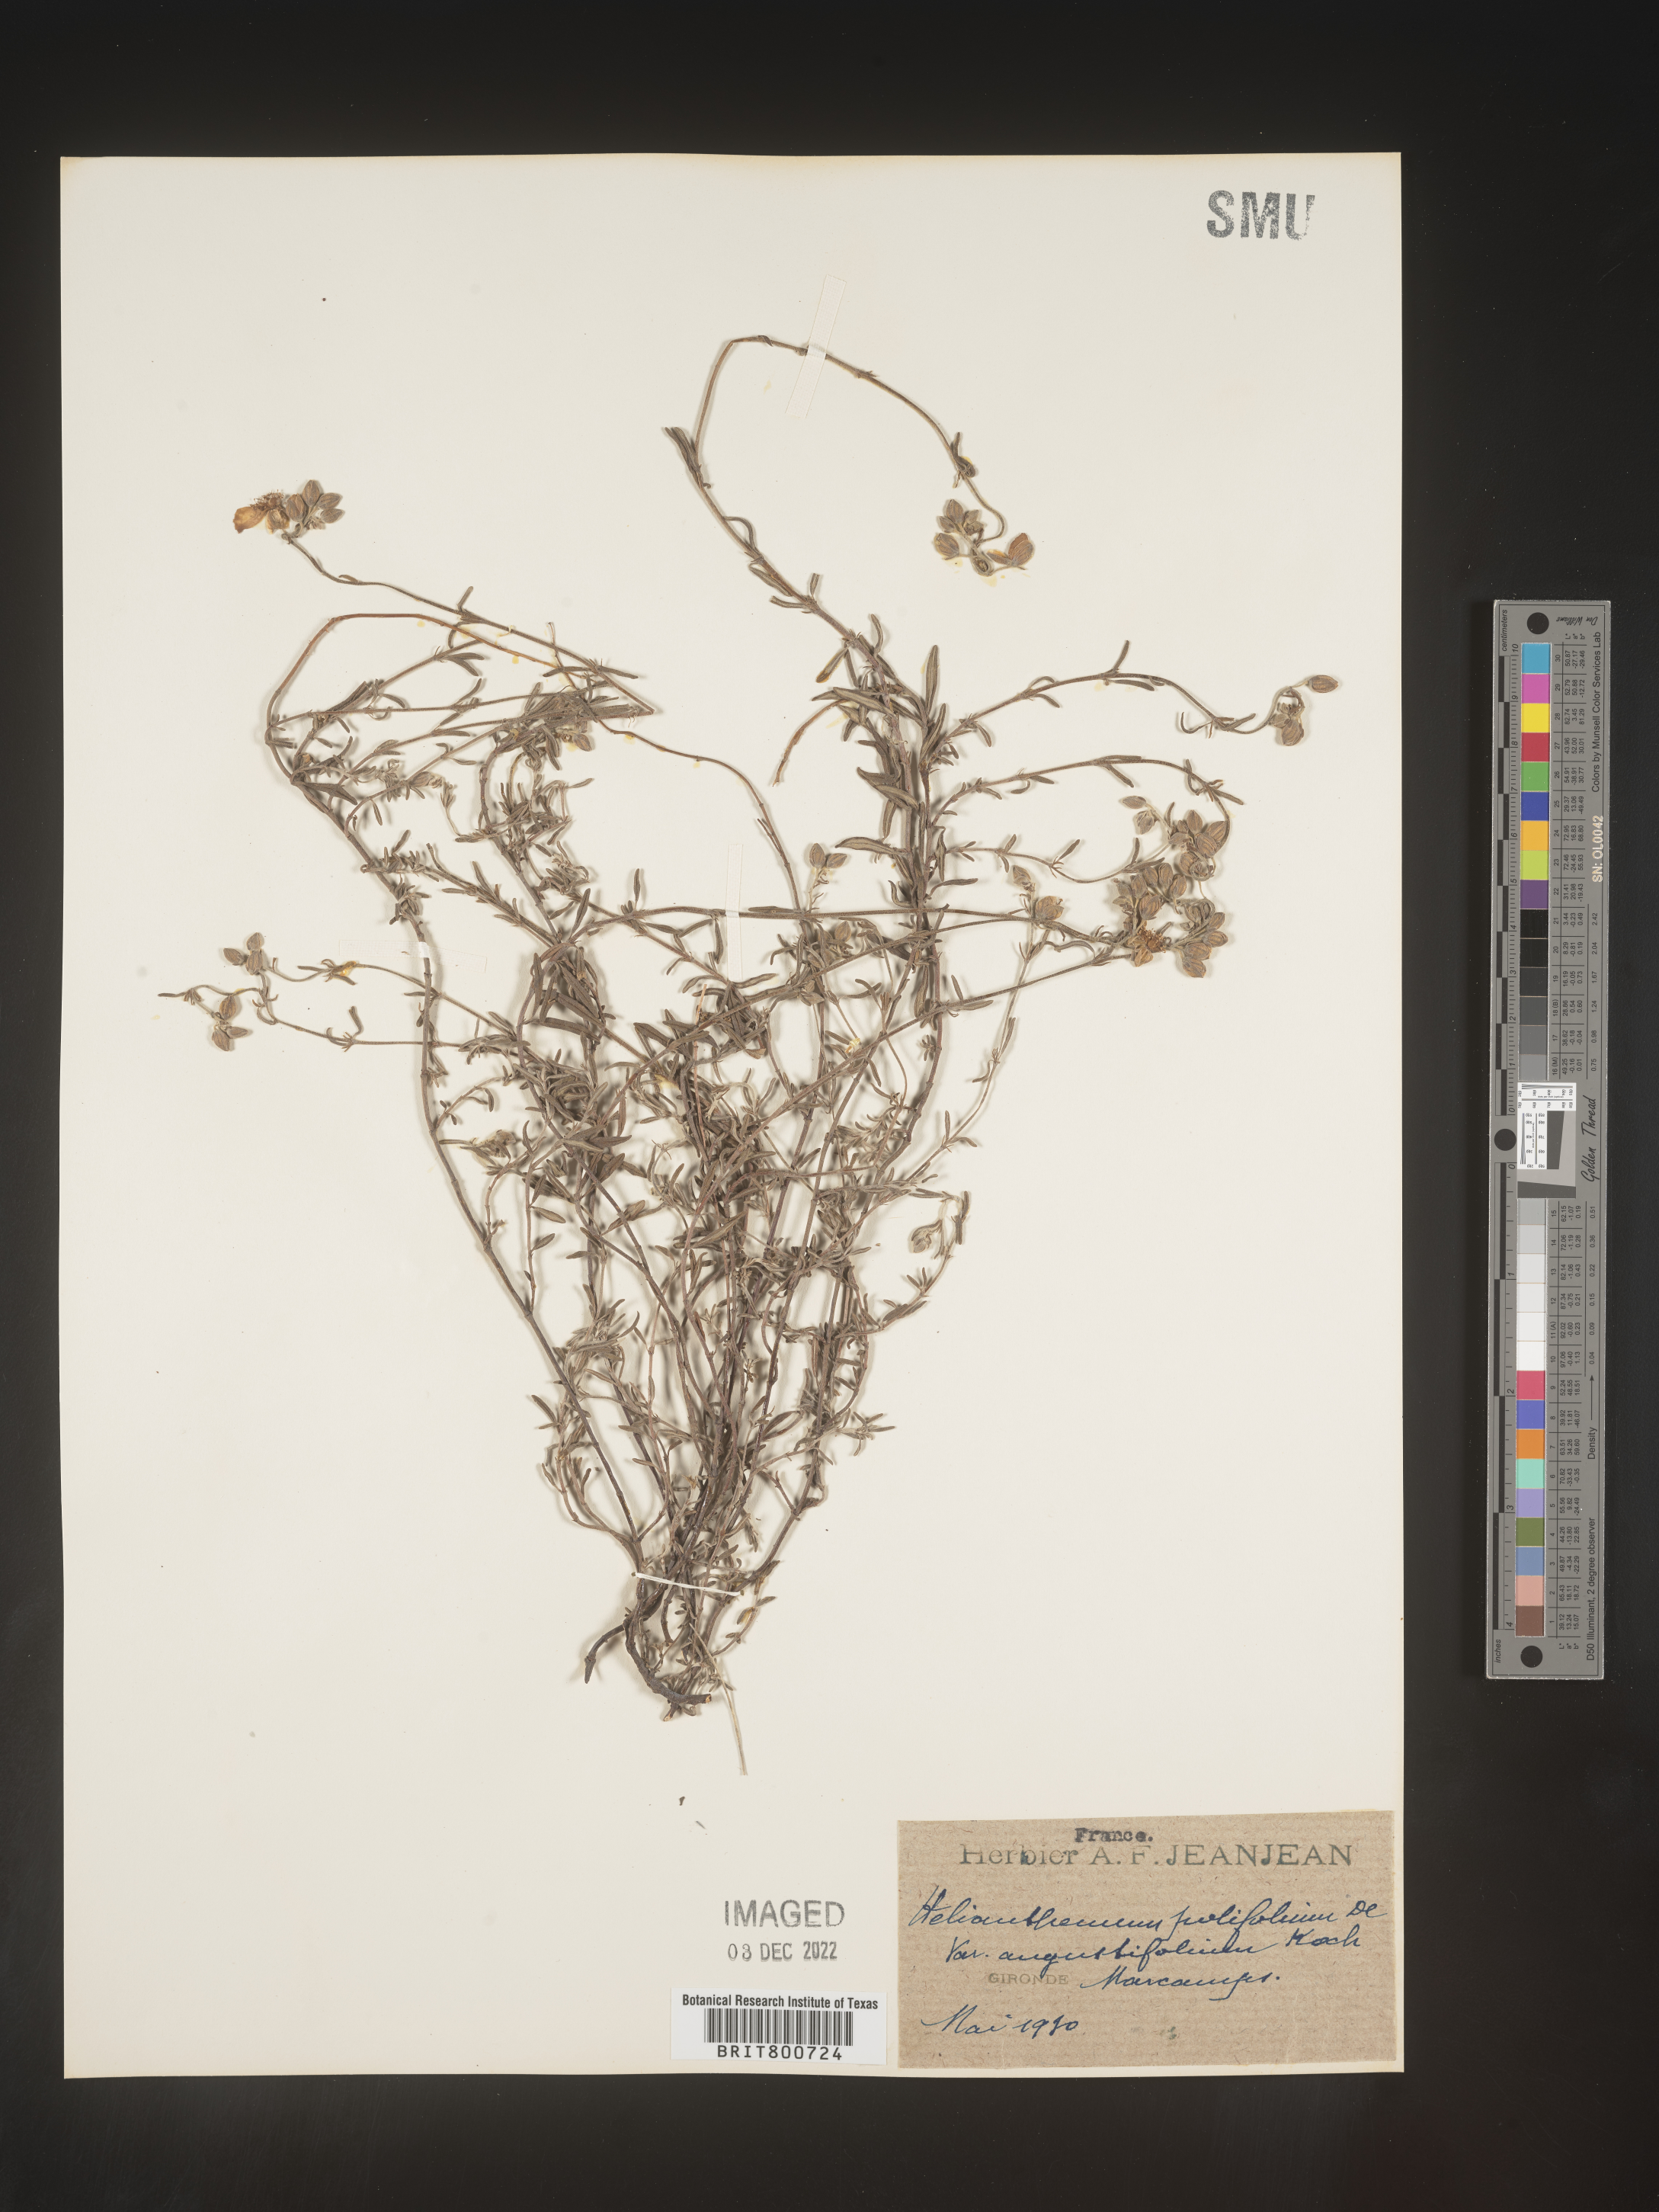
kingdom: Plantae
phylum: Tracheophyta
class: Magnoliopsida
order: Malvales
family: Cistaceae
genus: Helianthemum
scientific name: Helianthemum
